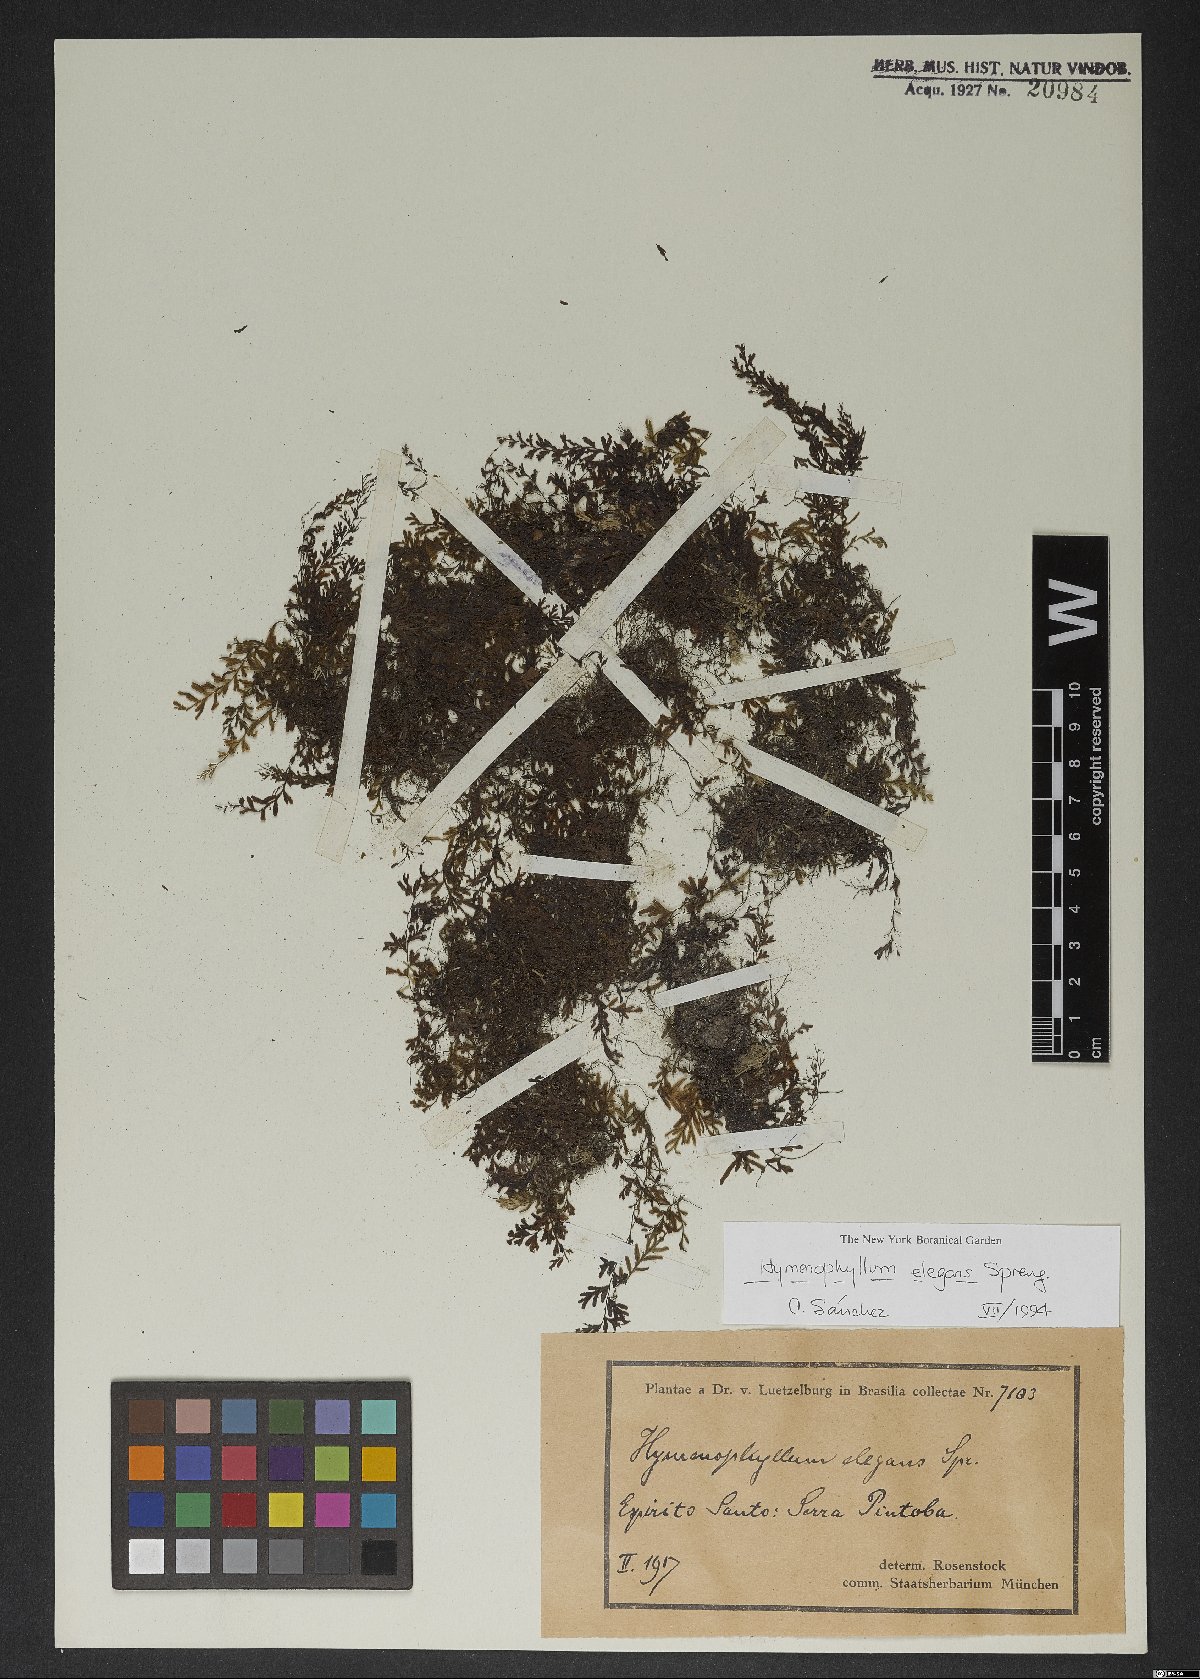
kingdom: Plantae
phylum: Tracheophyta
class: Polypodiopsida
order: Hymenophyllales
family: Hymenophyllaceae
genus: Hymenophyllum
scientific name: Hymenophyllum elegans
